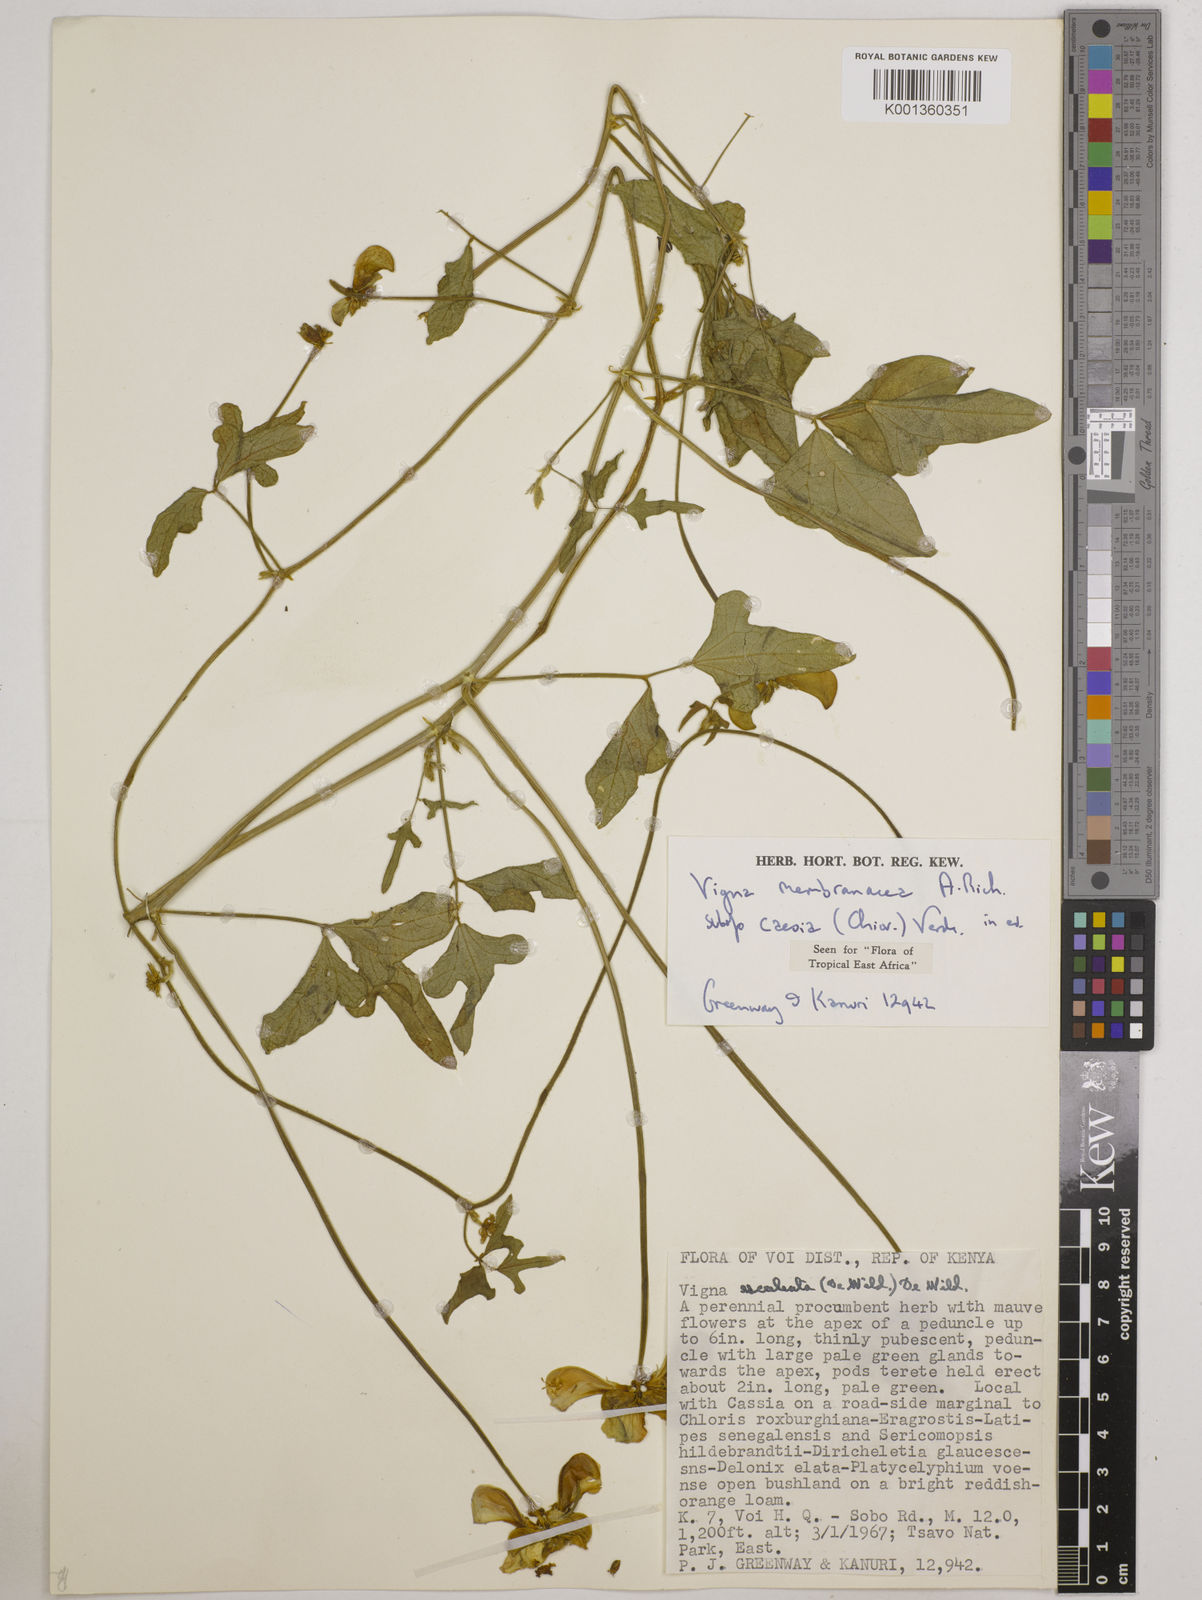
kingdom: Plantae
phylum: Tracheophyta
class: Magnoliopsida
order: Fabales
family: Fabaceae
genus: Vigna
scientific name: Vigna
